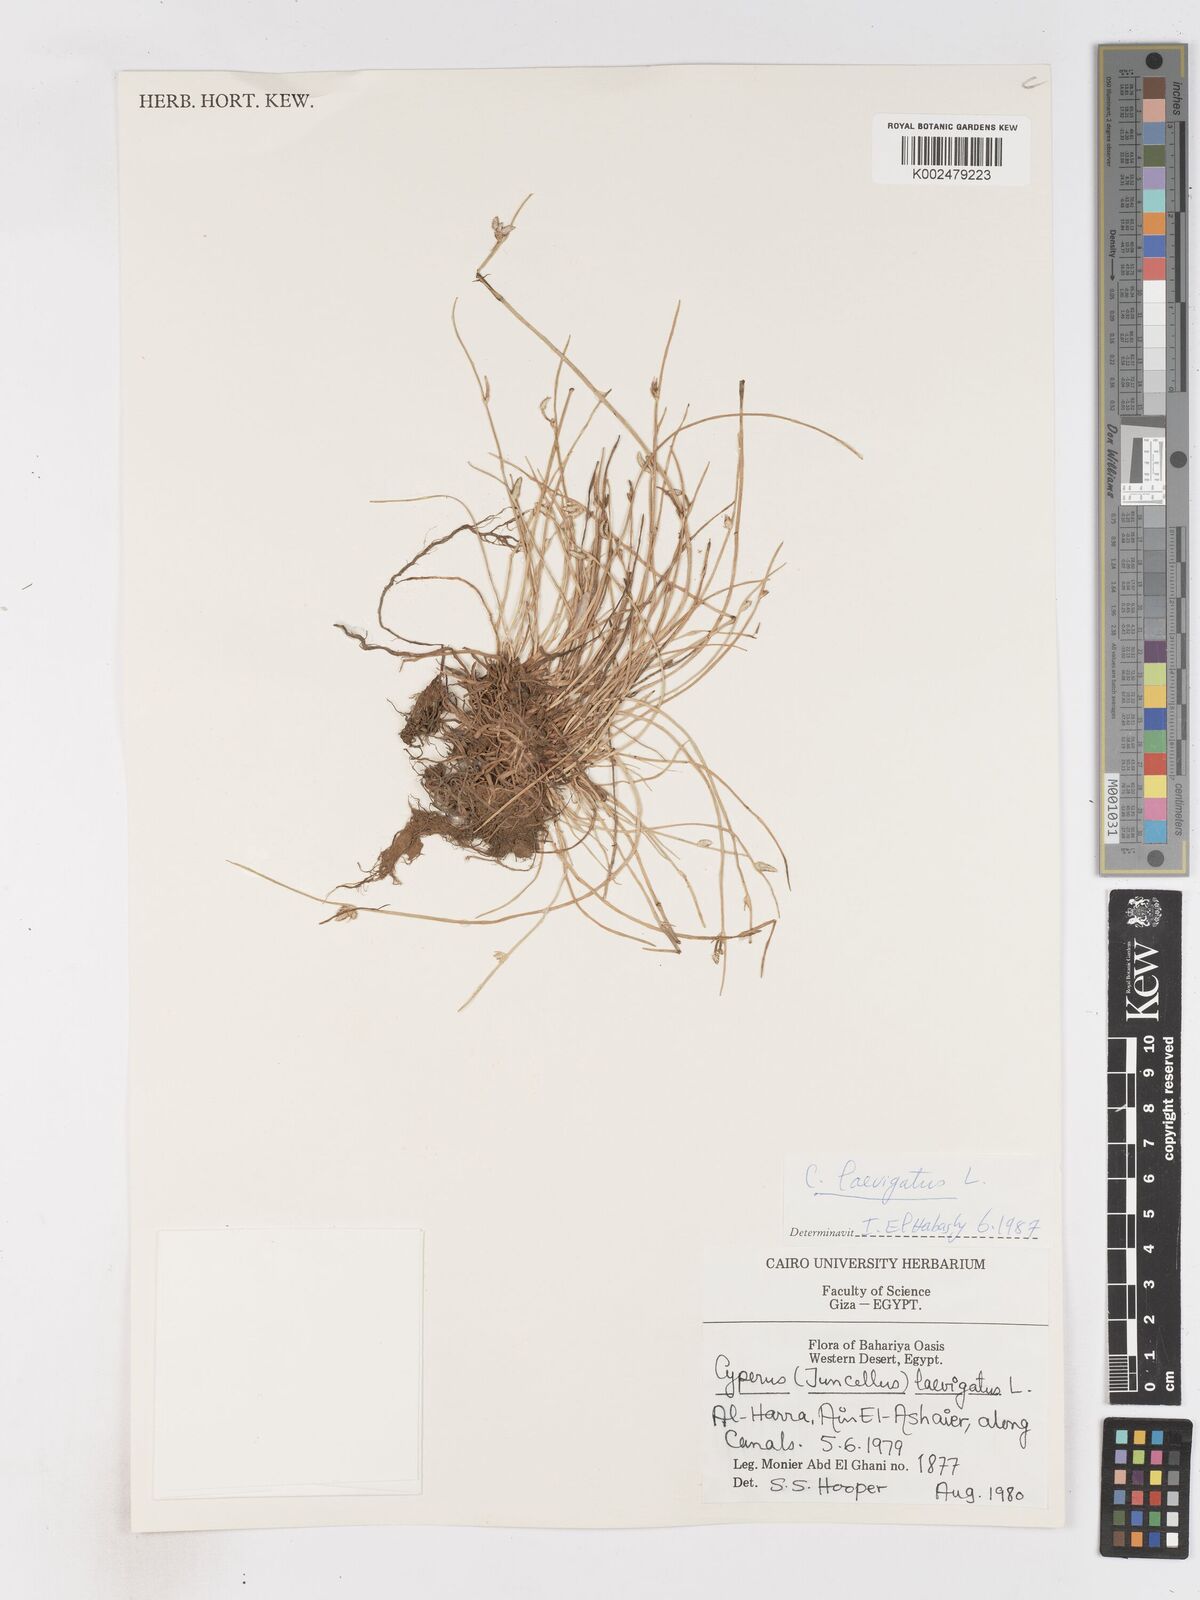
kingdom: Plantae
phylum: Tracheophyta
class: Liliopsida
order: Poales
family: Cyperaceae
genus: Cyperus
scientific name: Cyperus laevigatus
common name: Smooth flat sedge
